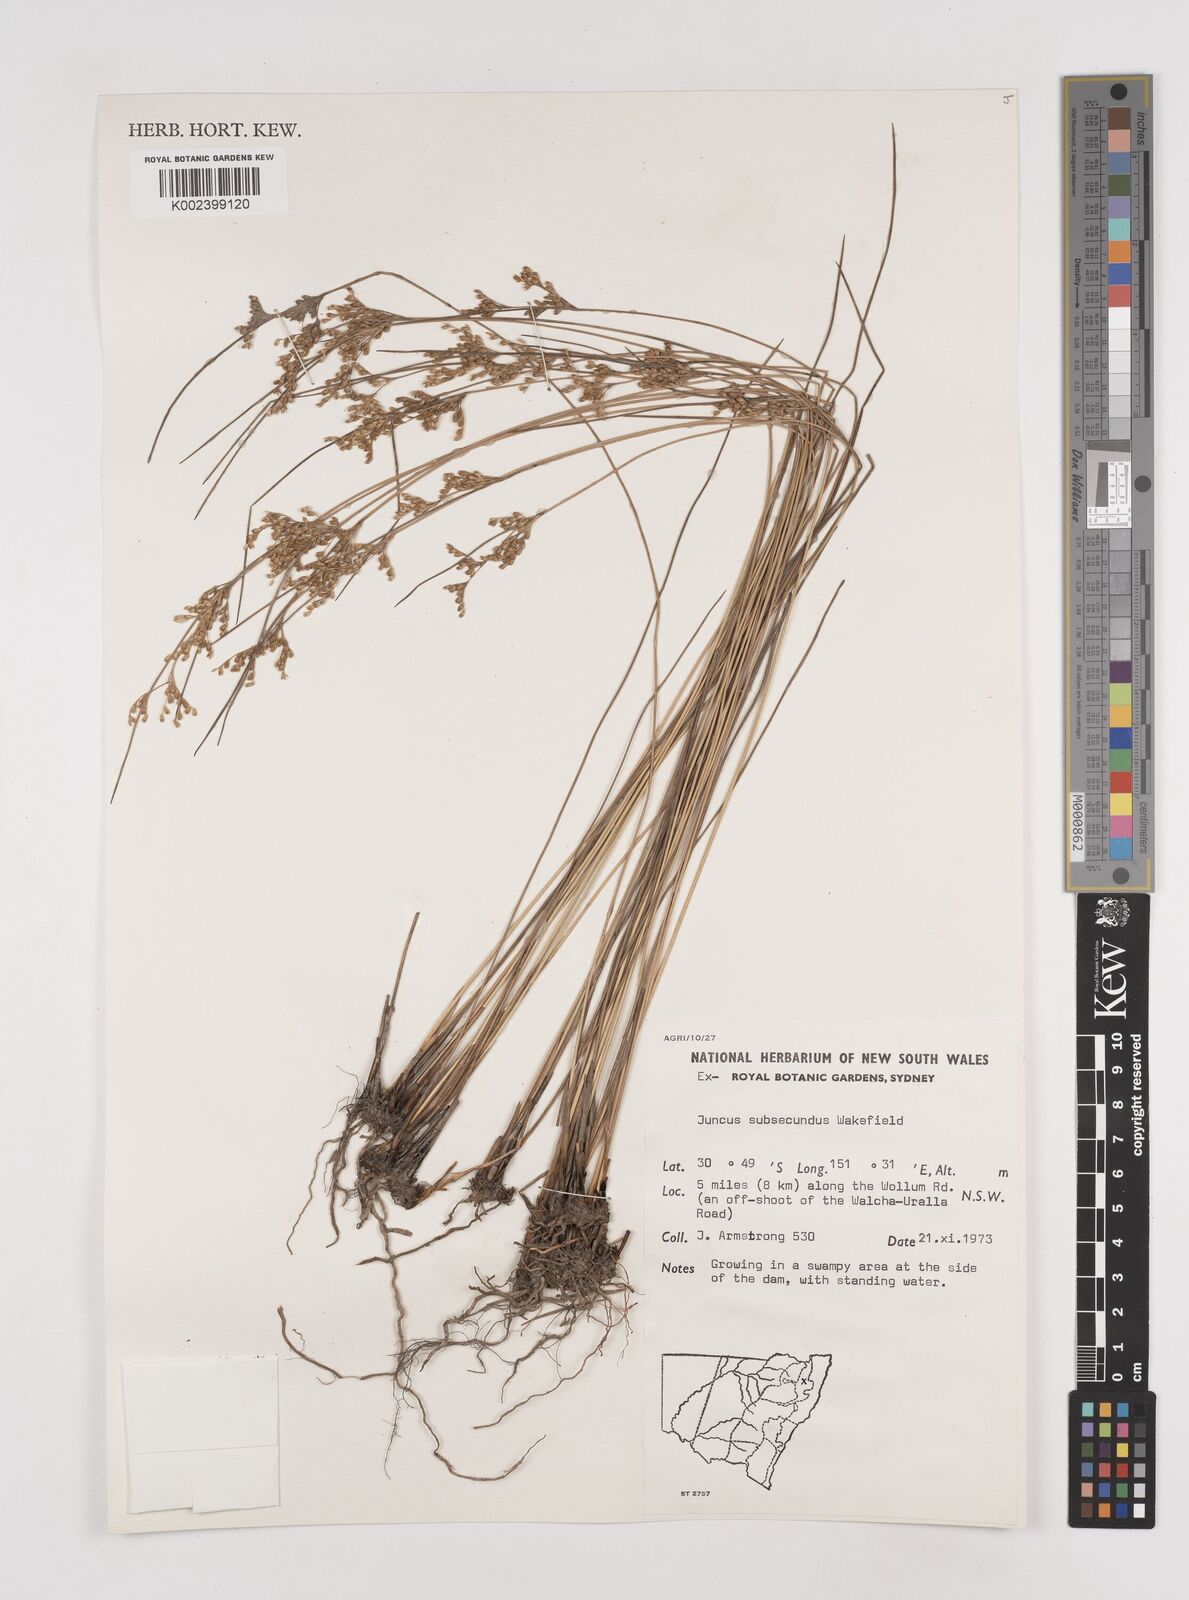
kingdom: Plantae
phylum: Tracheophyta
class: Liliopsida
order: Poales
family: Juncaceae
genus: Juncus
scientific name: Juncus subsecundus
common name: Fingered rush
